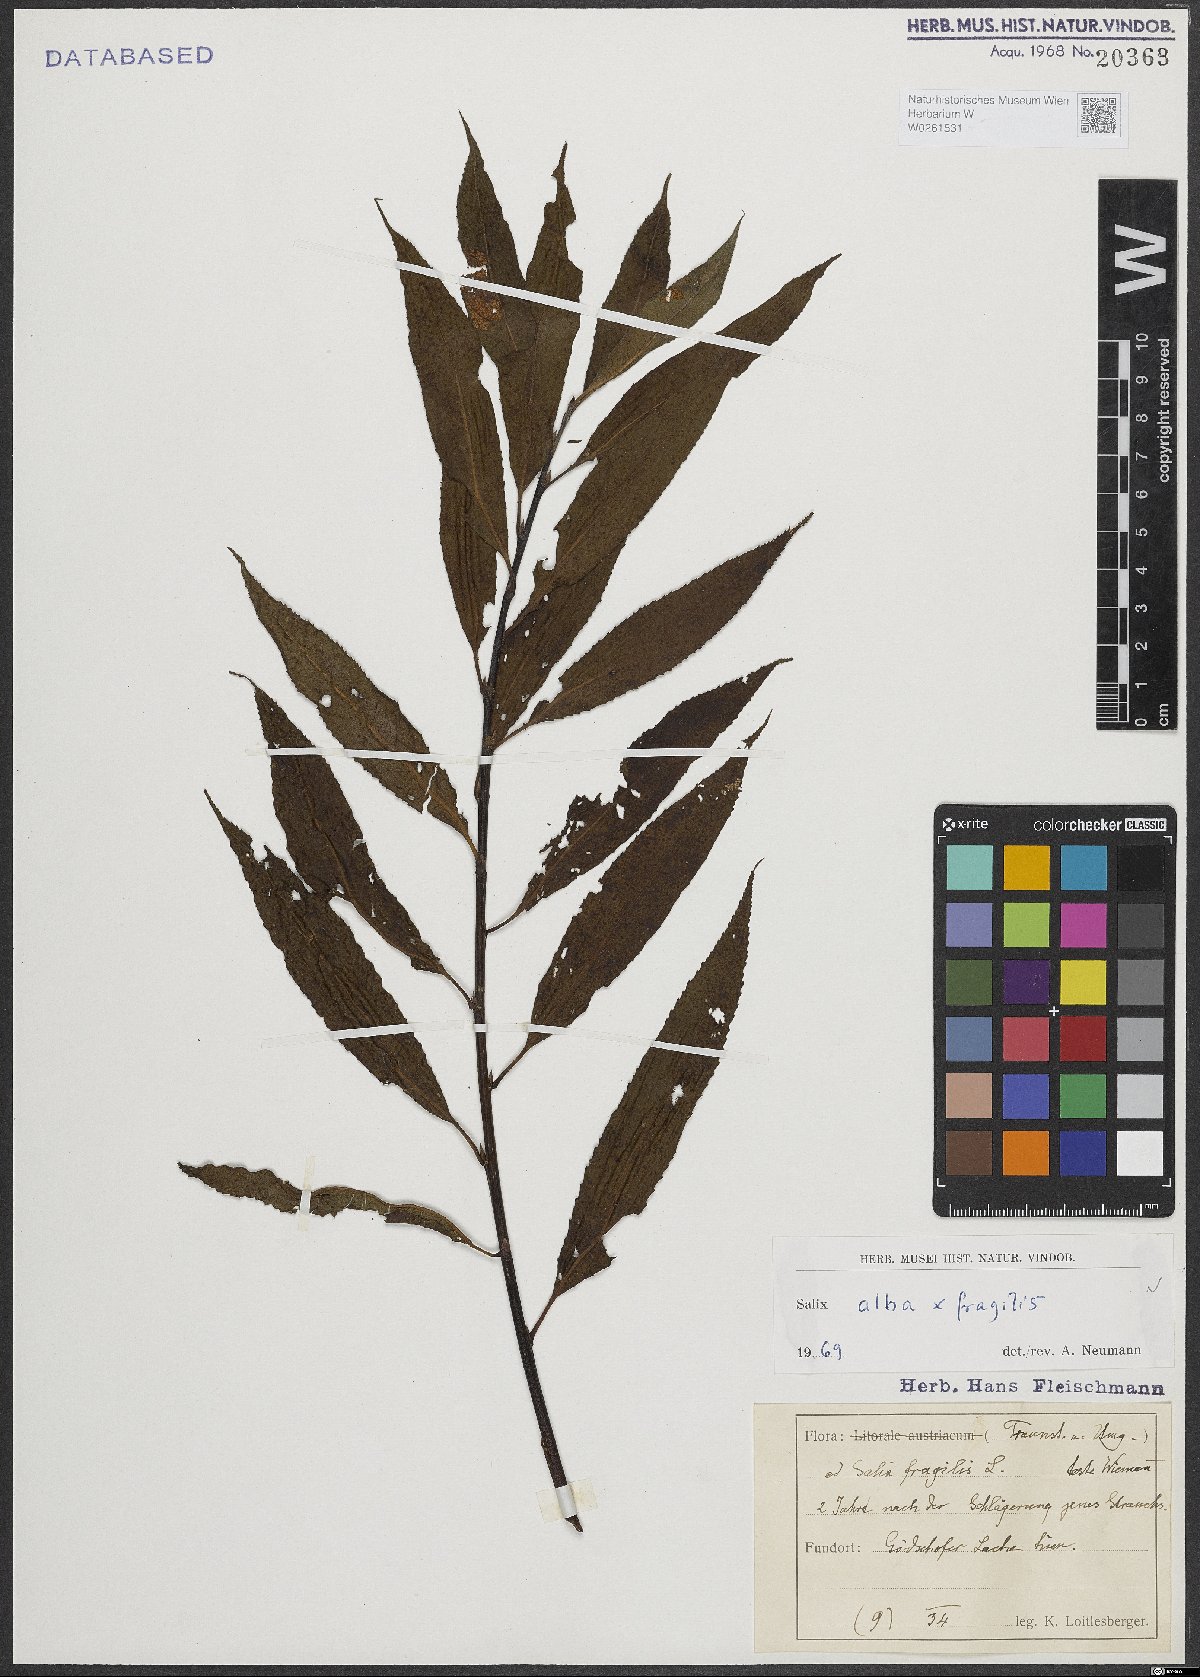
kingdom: Plantae
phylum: Tracheophyta
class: Magnoliopsida
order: Malpighiales
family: Salicaceae
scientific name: Salicaceae
